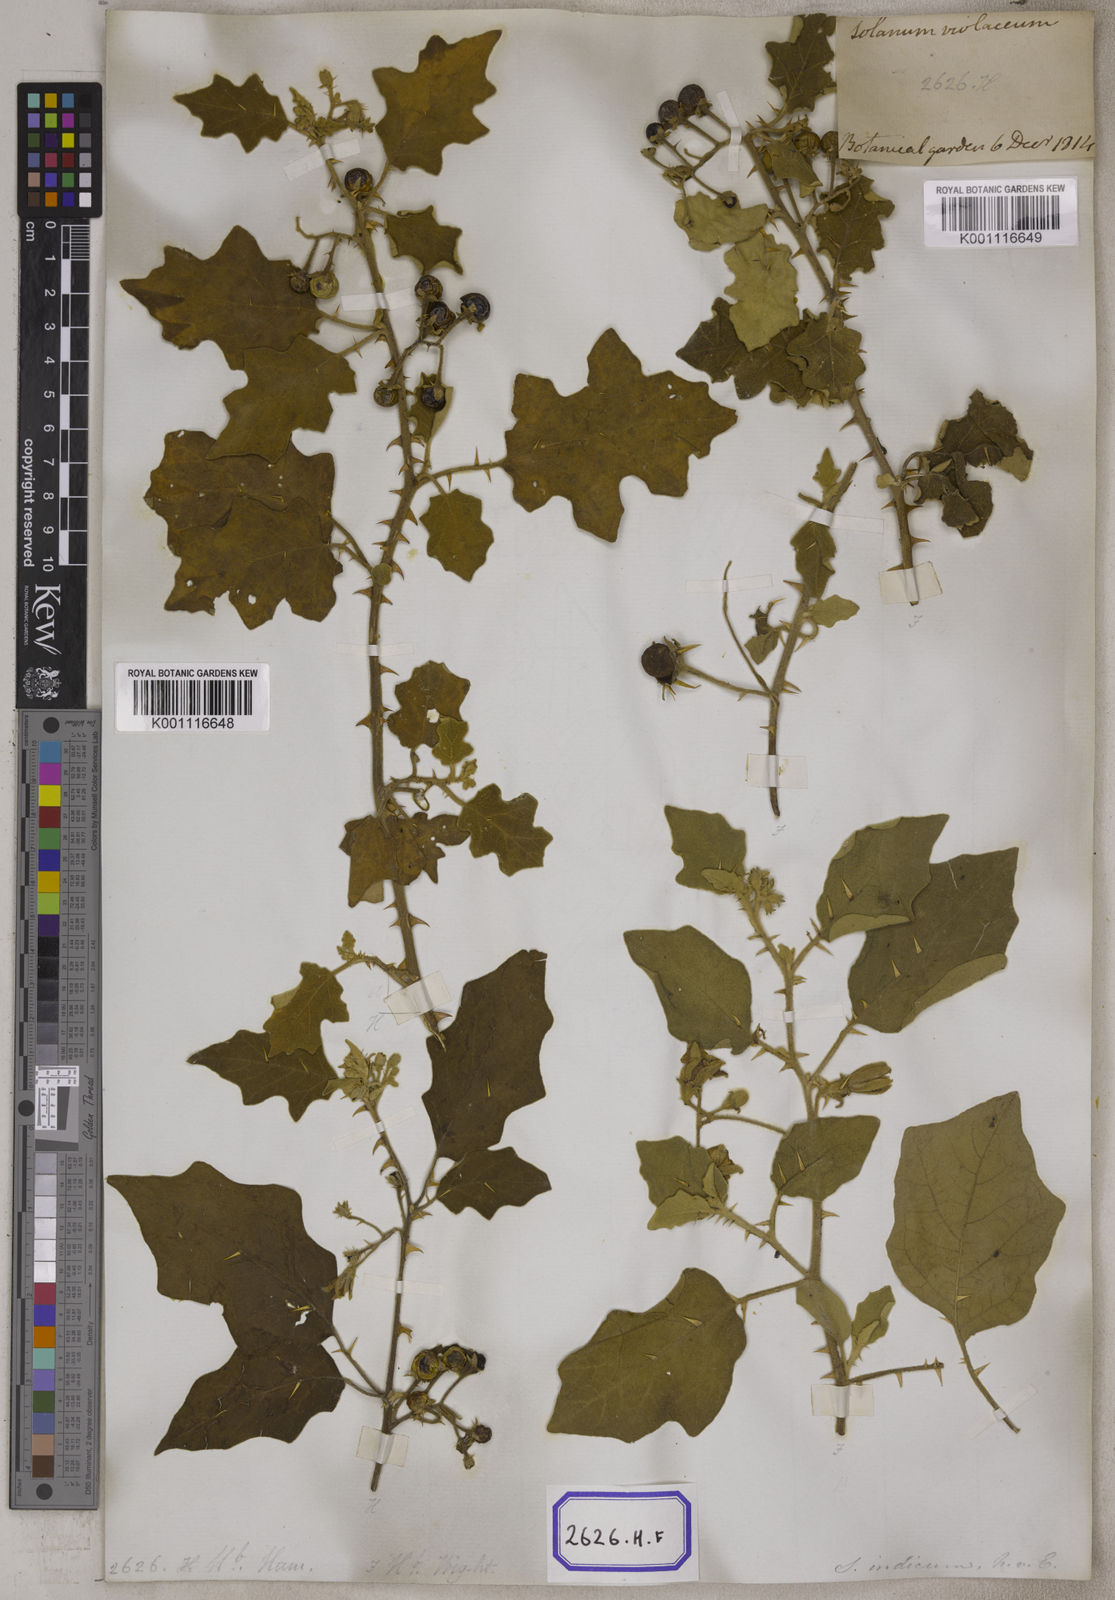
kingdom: Plantae
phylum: Tracheophyta
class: Magnoliopsida
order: Solanales
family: Solanaceae
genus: Solanum
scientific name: Solanum violaceum
